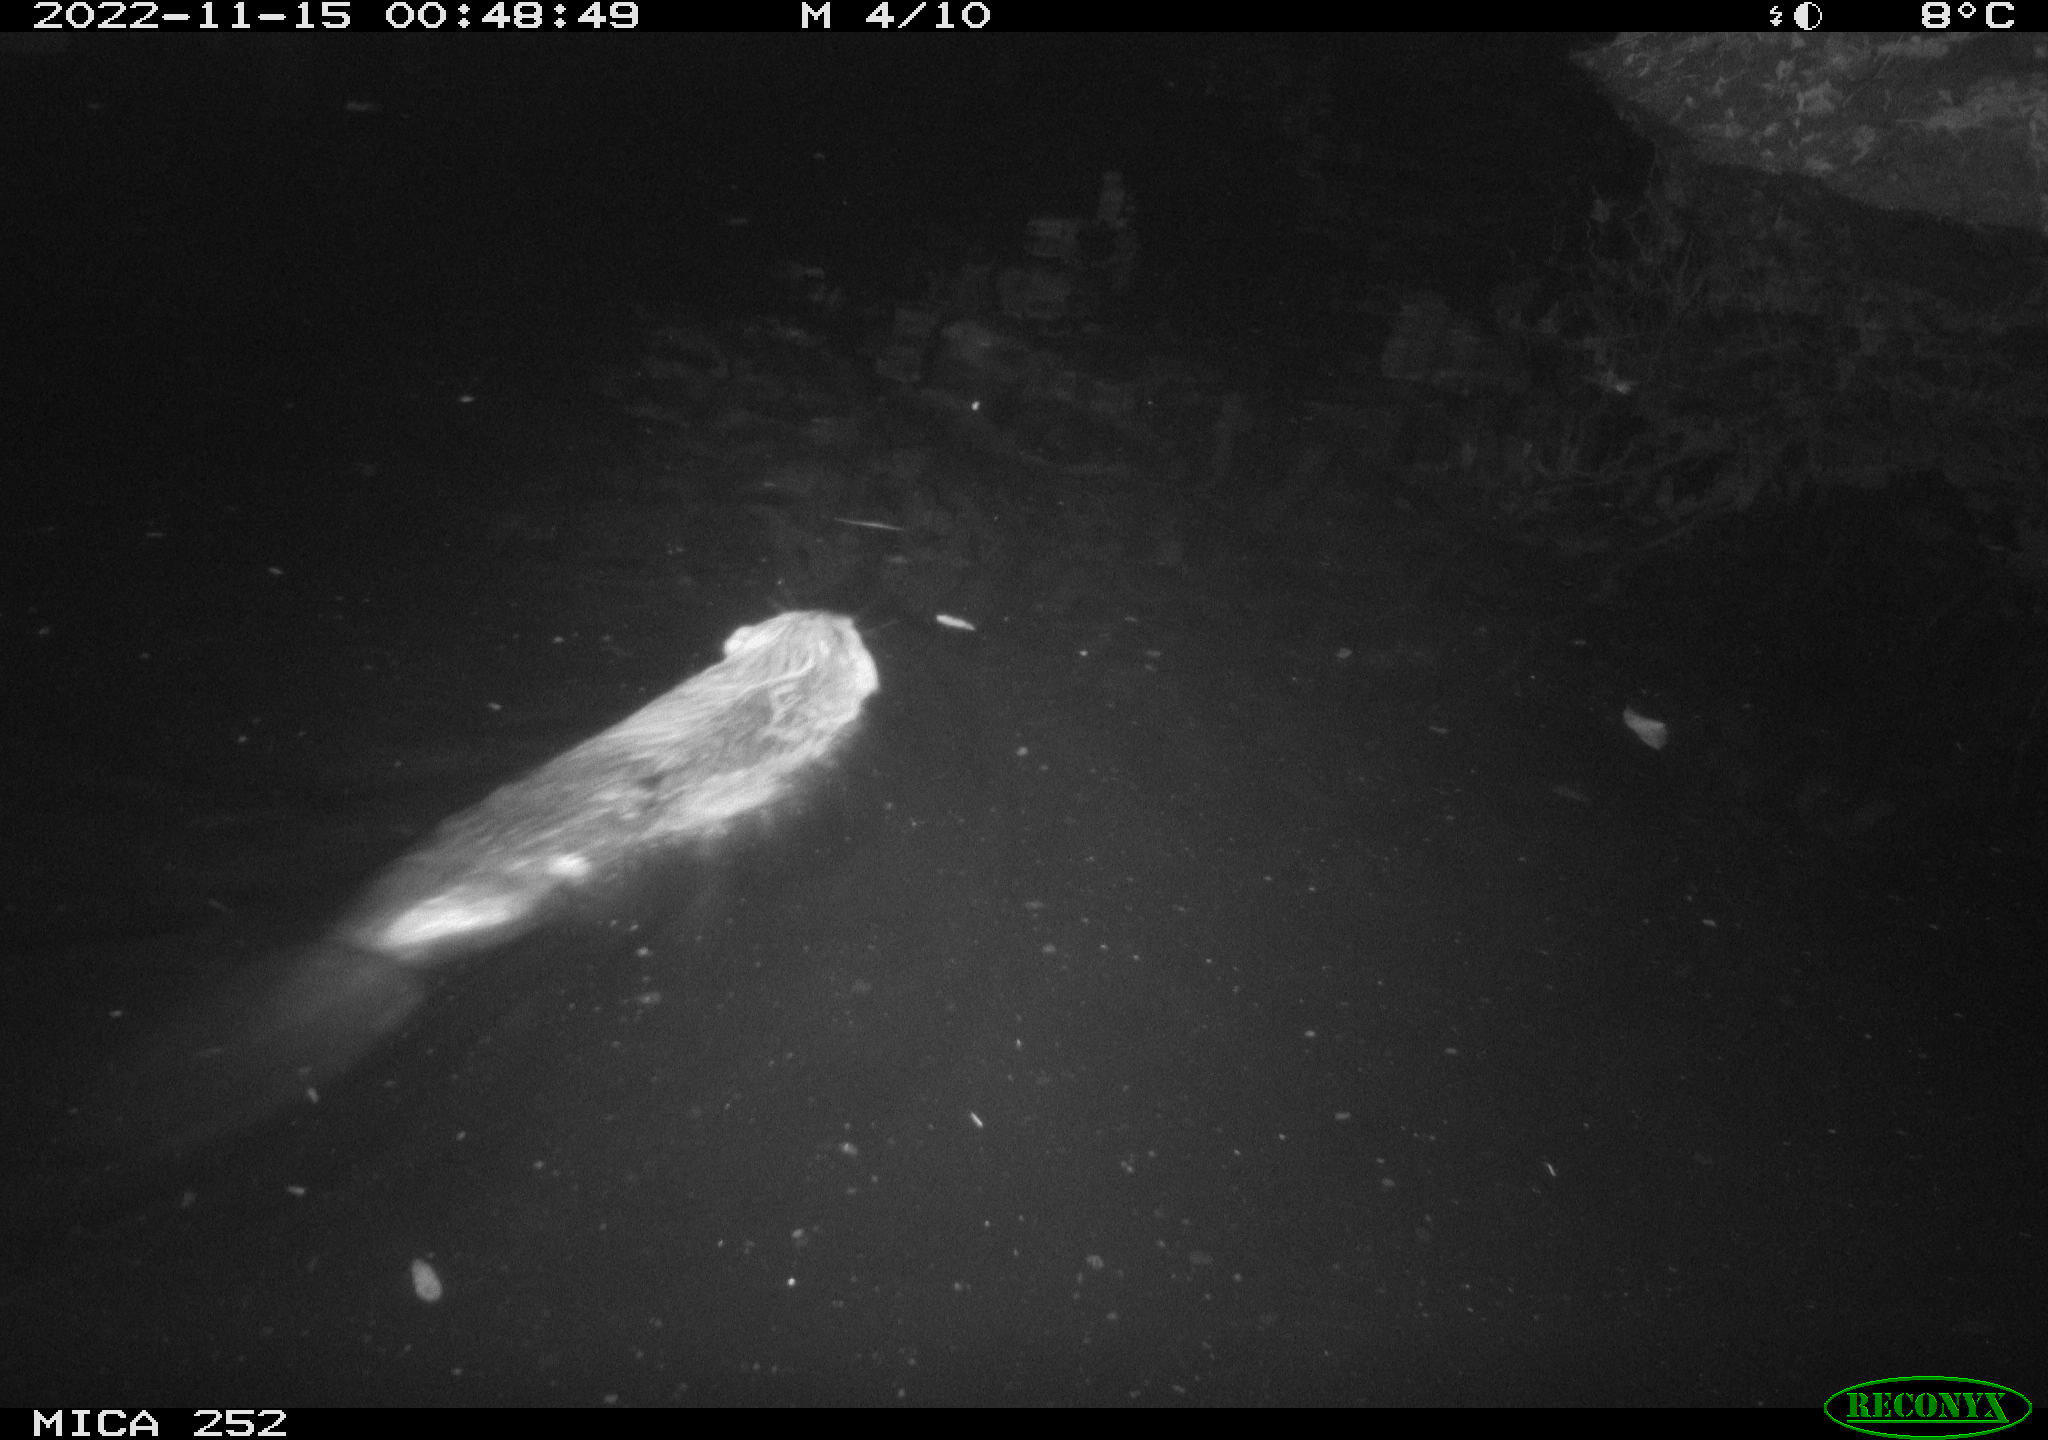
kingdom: Animalia
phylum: Chordata
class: Mammalia
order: Rodentia
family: Castoridae
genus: Castor
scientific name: Castor fiber
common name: Eurasian beaver
